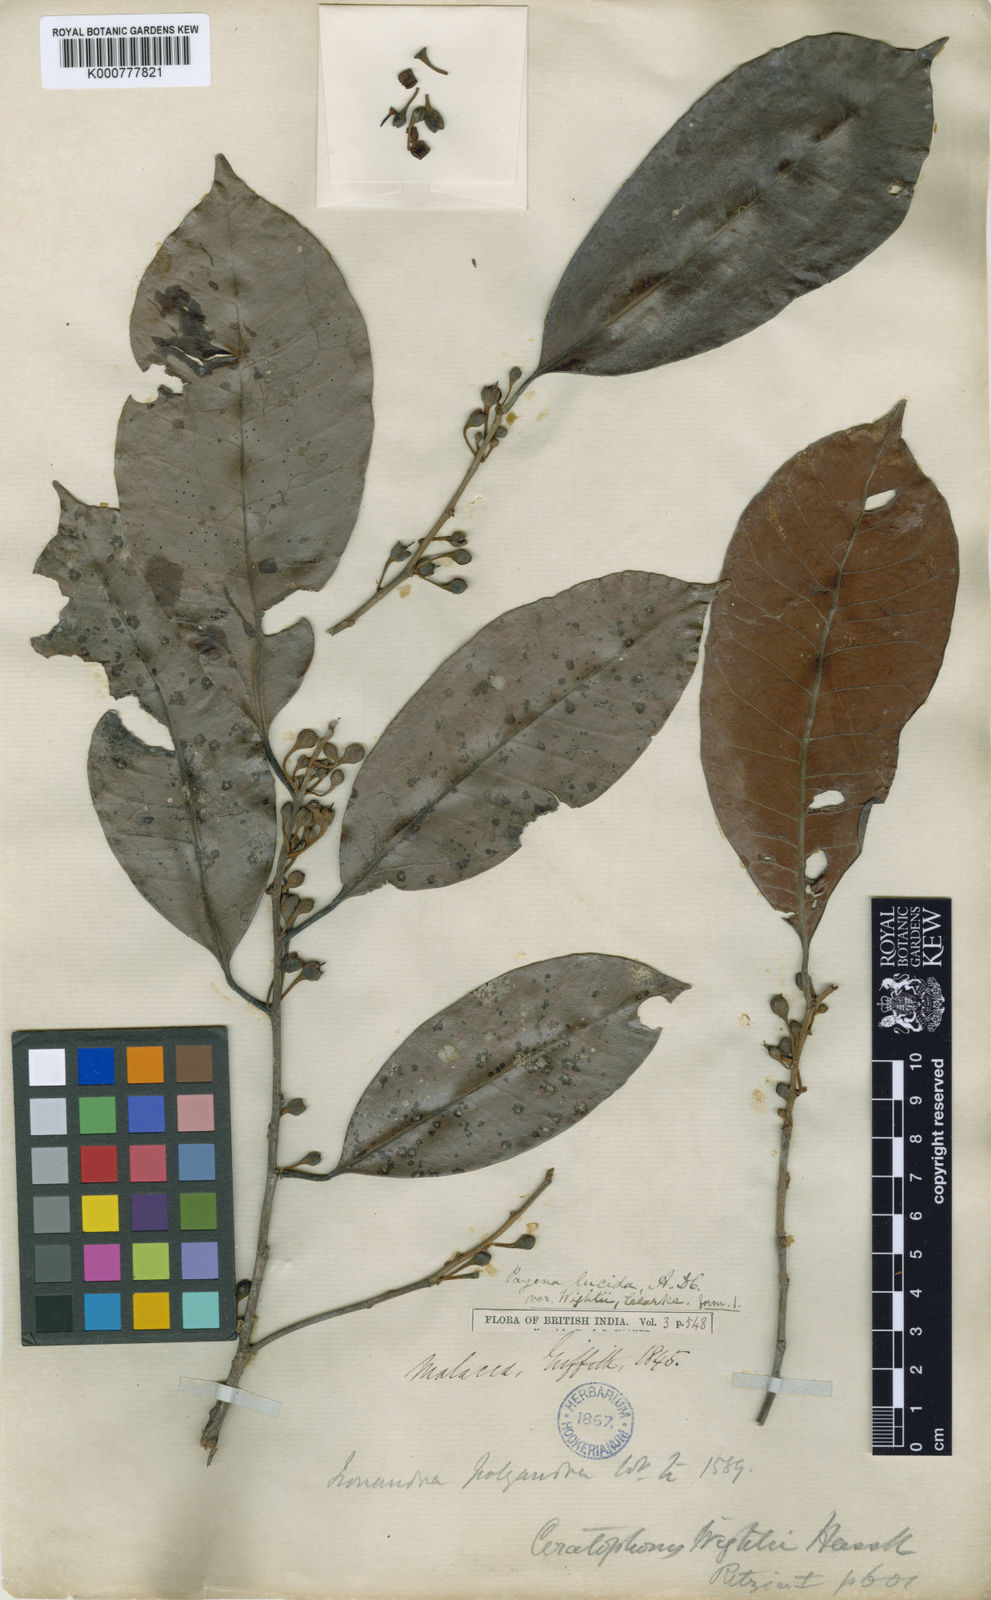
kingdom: Plantae
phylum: Tracheophyta
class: Magnoliopsida
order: Ericales
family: Sapotaceae
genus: Payena
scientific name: Payena lucida
